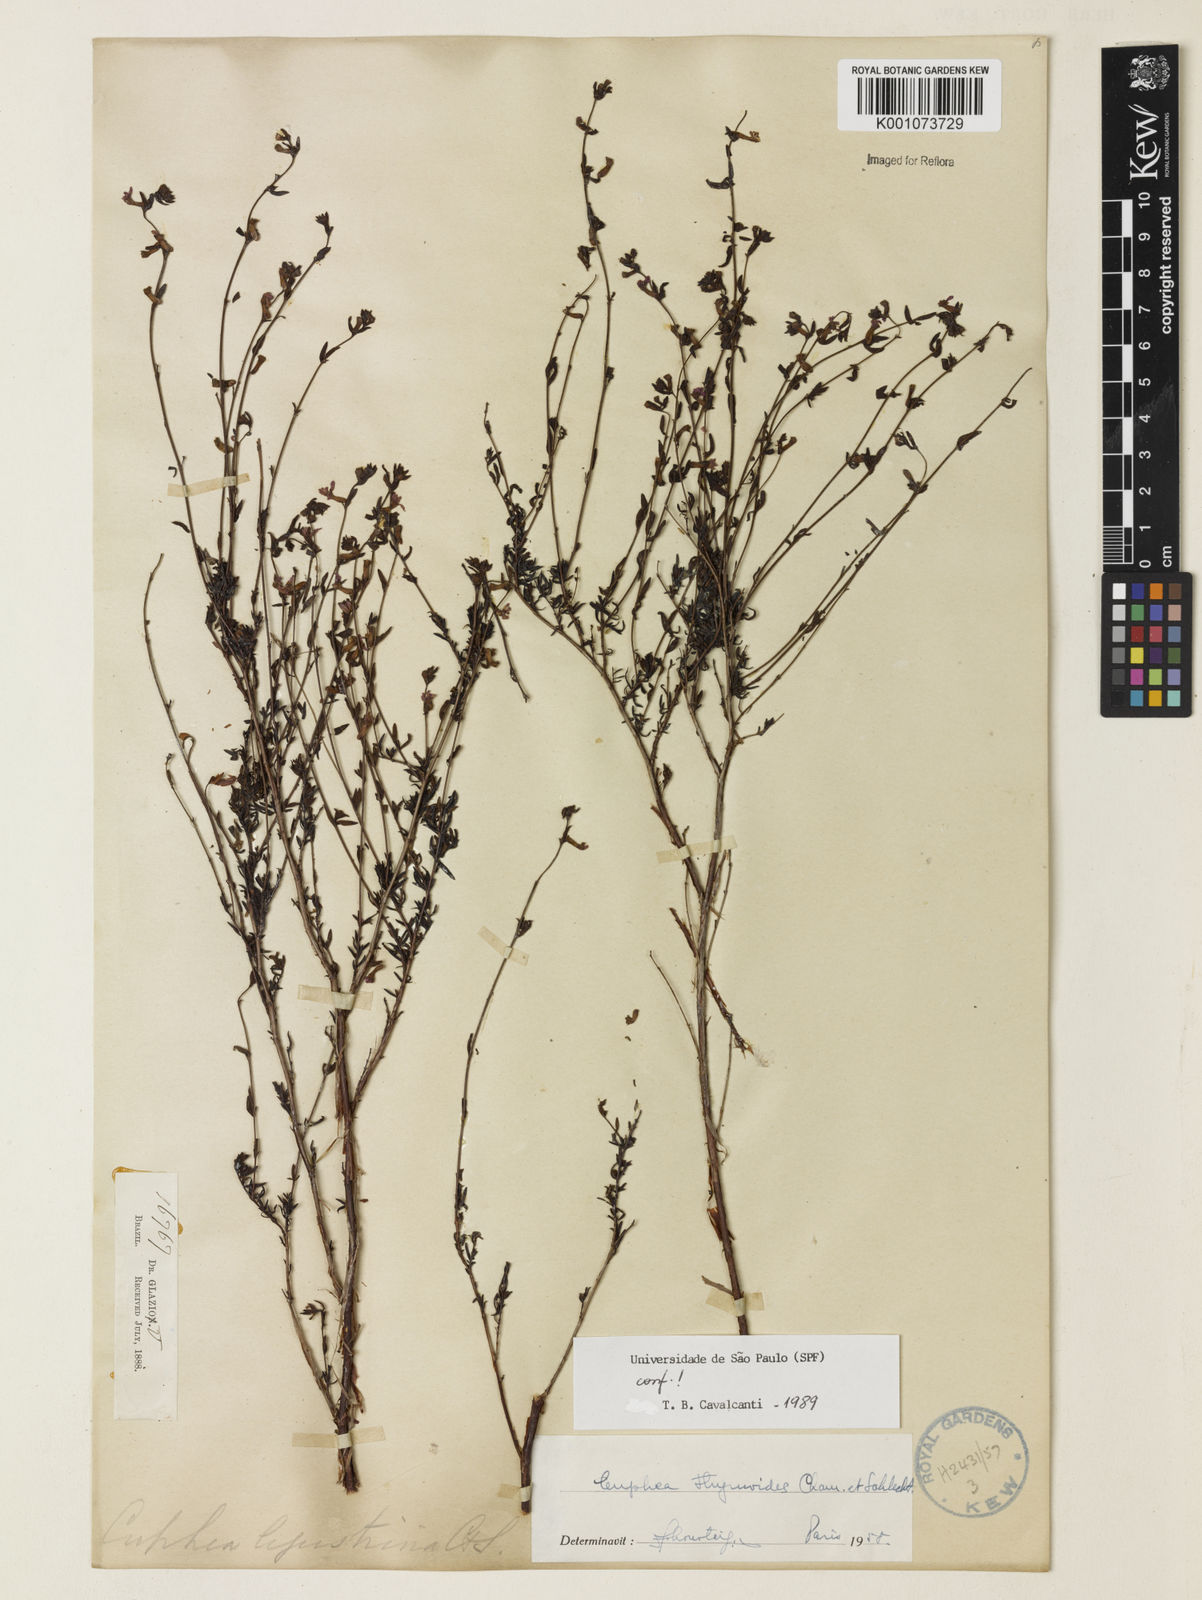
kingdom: Plantae
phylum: Tracheophyta
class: Magnoliopsida
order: Myrtales
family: Lythraceae
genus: Cuphea
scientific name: Cuphea thymoides
